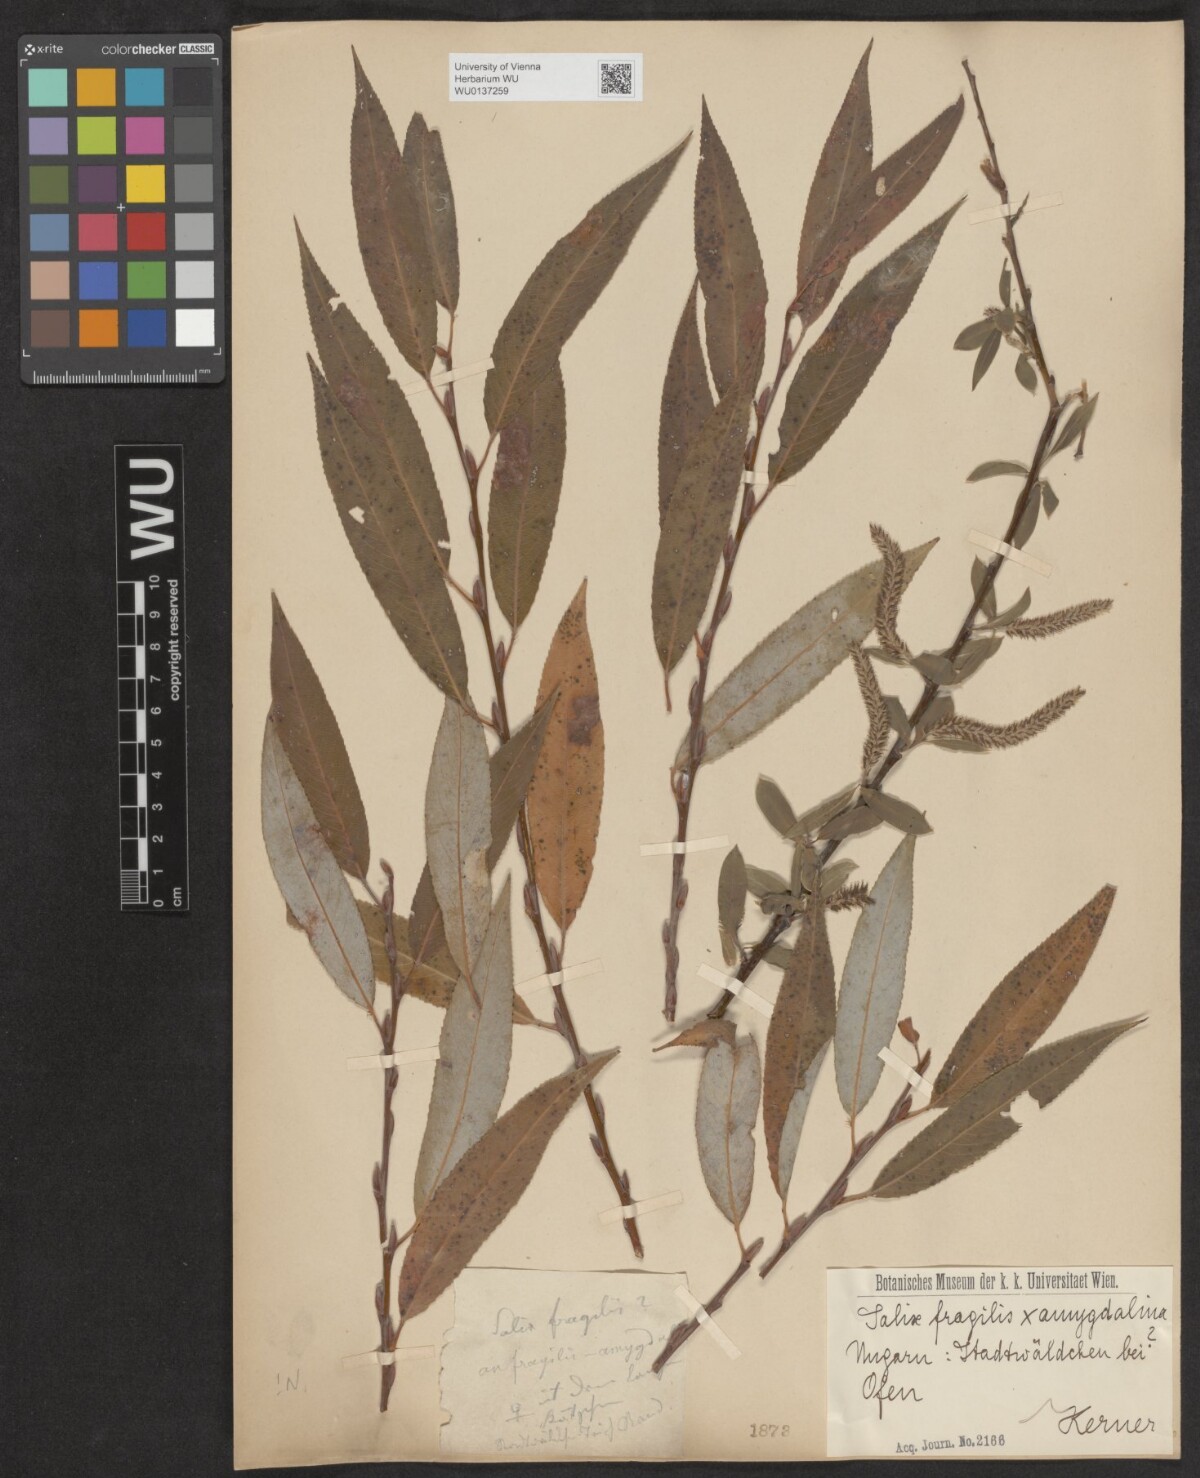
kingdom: Plantae
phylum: Tracheophyta
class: Magnoliopsida
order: Malpighiales
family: Salicaceae
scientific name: Salicaceae
